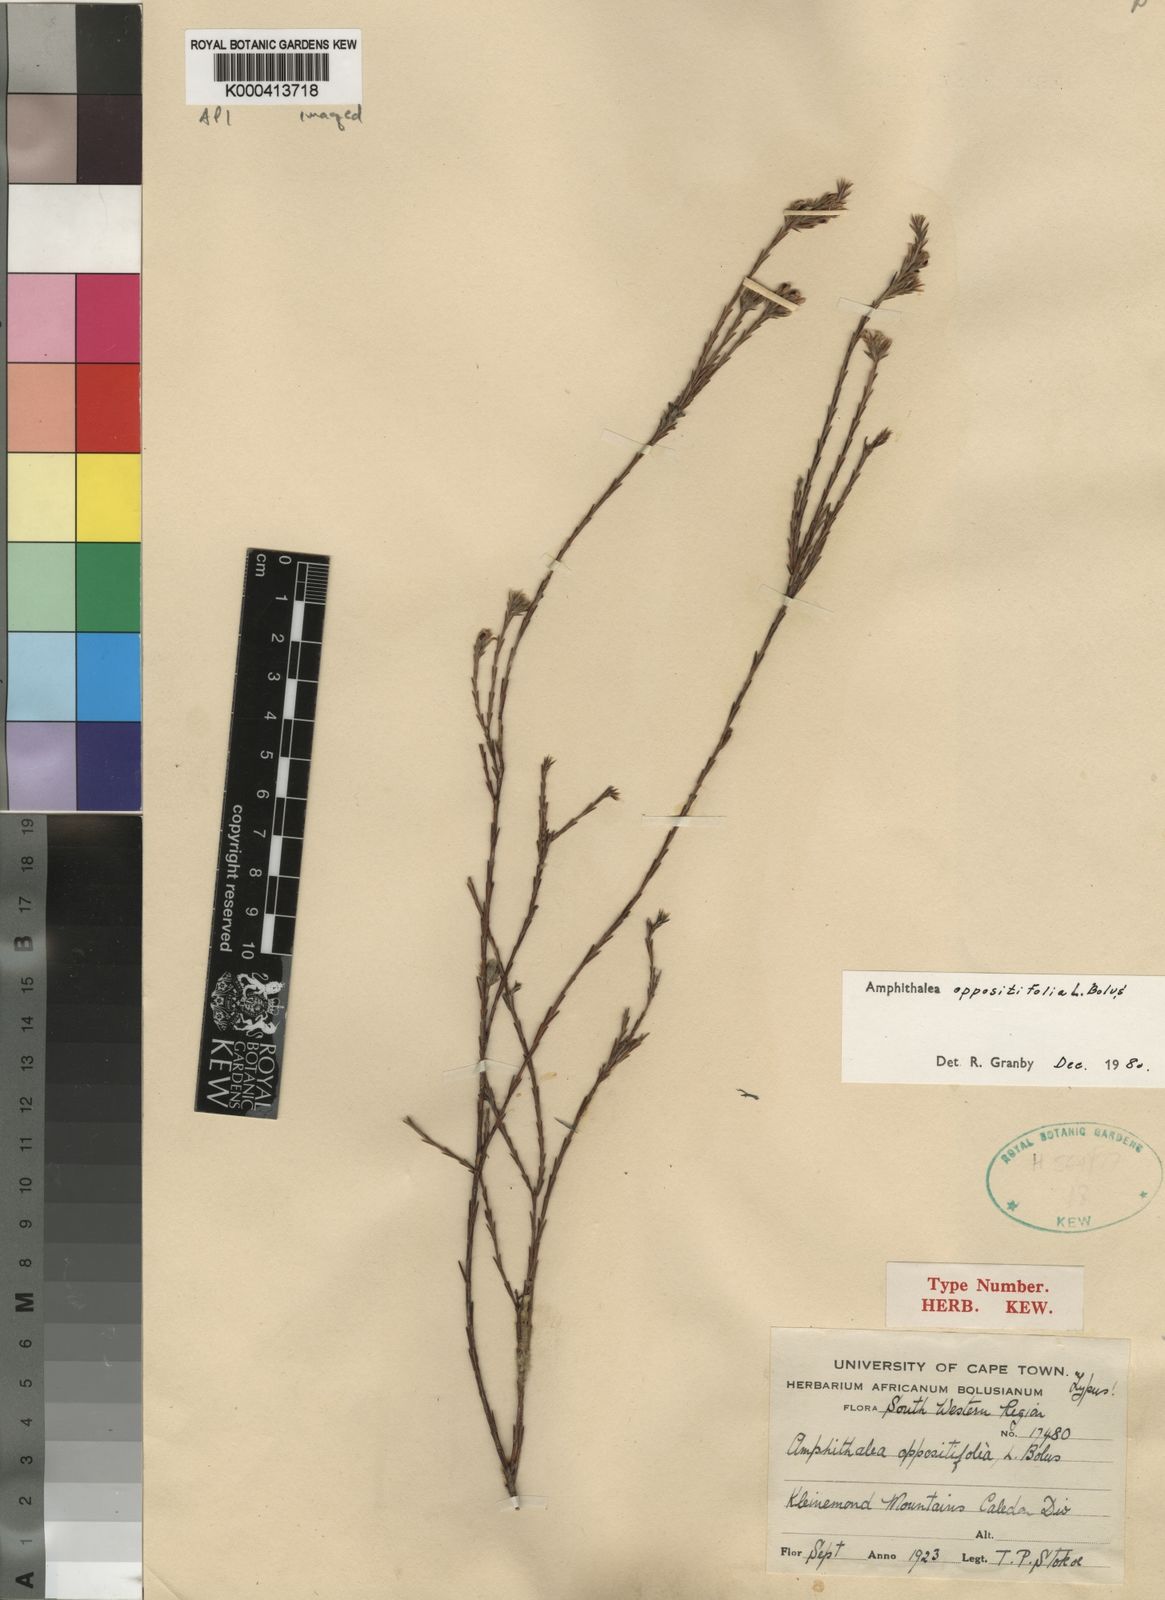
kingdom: Plantae
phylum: Tracheophyta
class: Magnoliopsida
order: Fabales
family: Fabaceae
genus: Amphithalea
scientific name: Amphithalea oppositifolia
